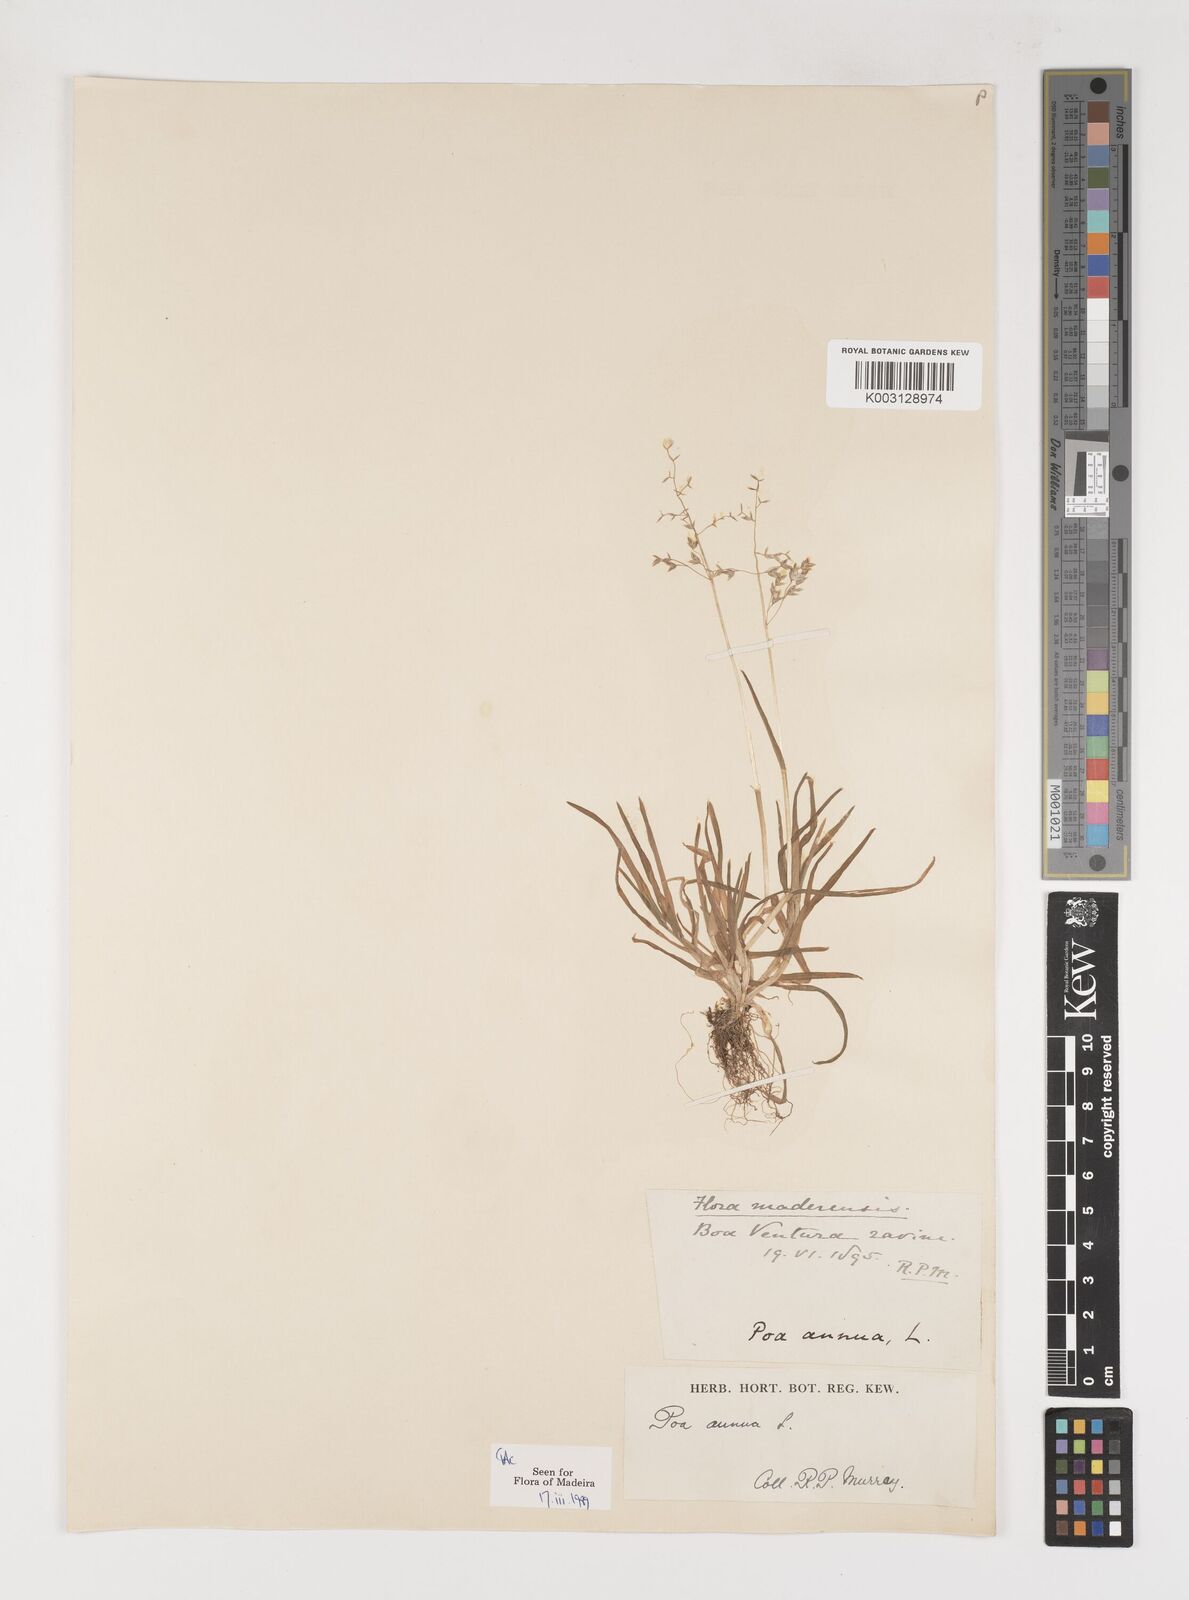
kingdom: Plantae
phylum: Tracheophyta
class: Liliopsida
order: Poales
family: Poaceae
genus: Poa
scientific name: Poa annua
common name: Annual bluegrass
